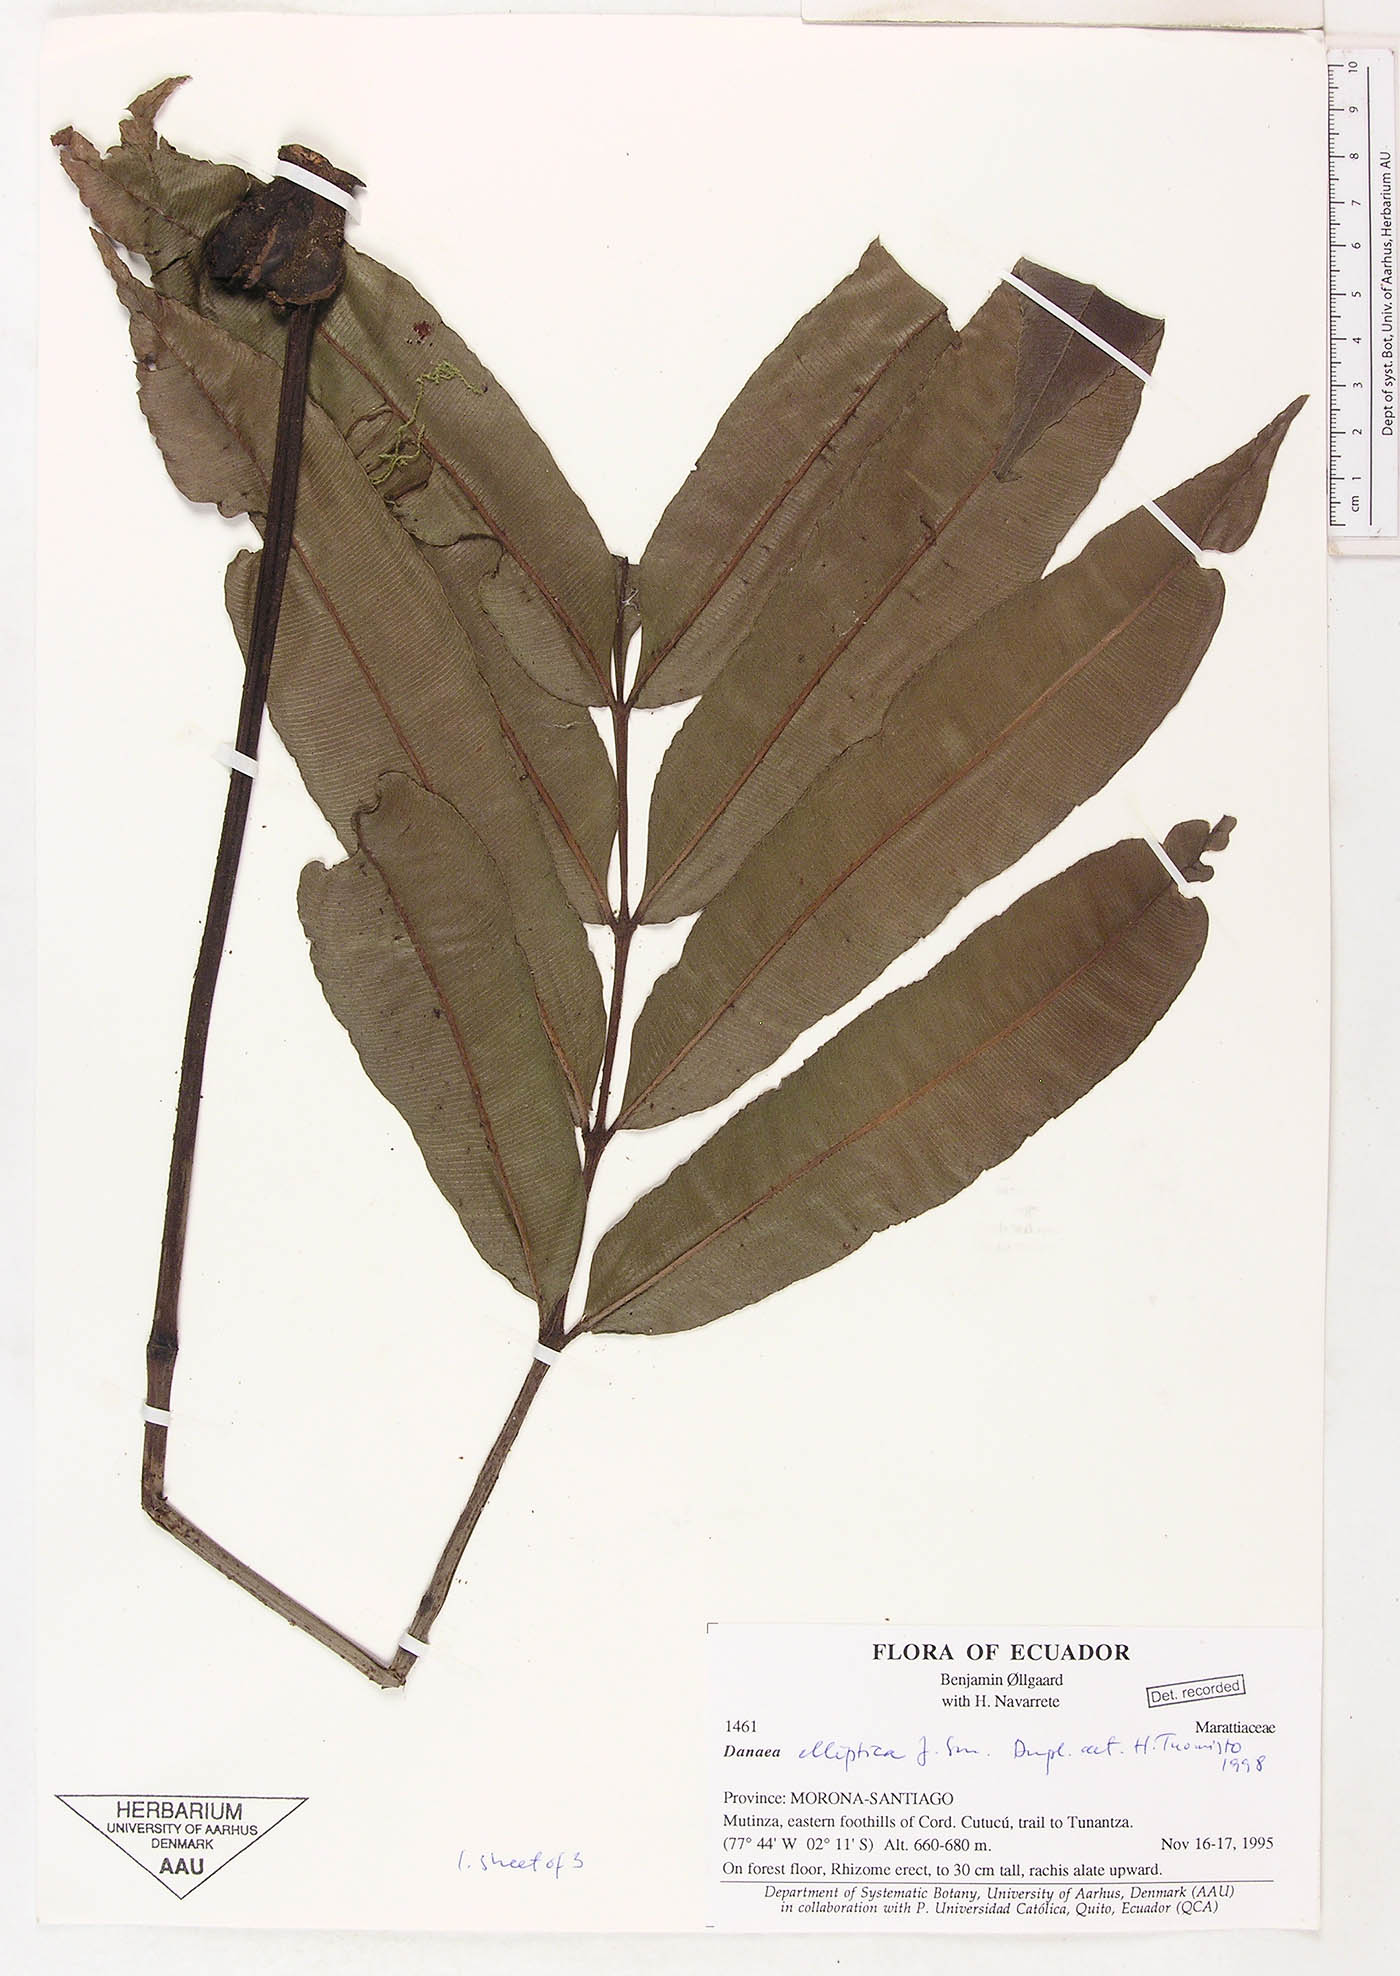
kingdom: Plantae
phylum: Tracheophyta
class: Polypodiopsida
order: Marattiales
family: Marattiaceae
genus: Danaea
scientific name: Danaea nodosa
